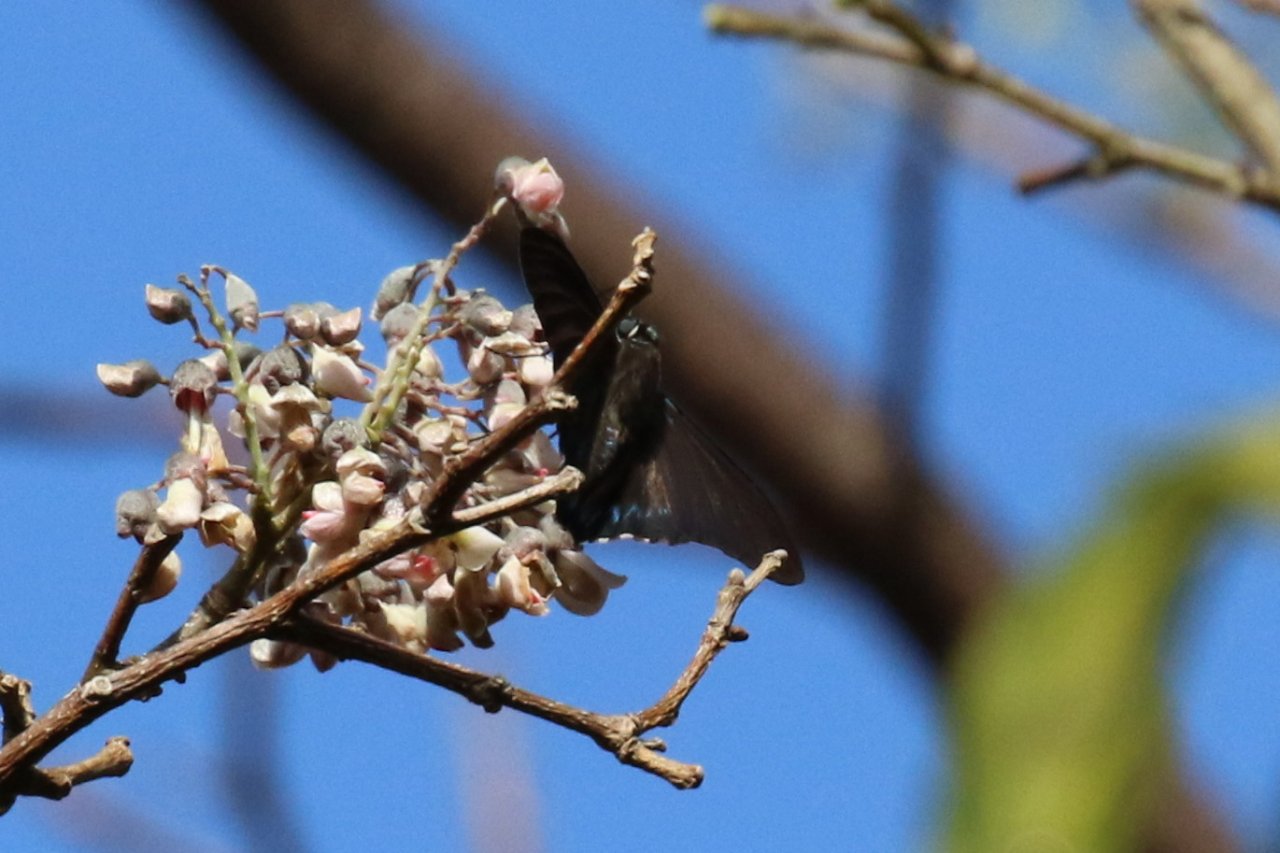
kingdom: Animalia
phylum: Arthropoda
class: Insecta
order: Lepidoptera
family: Hesperiidae
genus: Phocides
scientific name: Phocides pigmalion
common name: Mangrove Skipper
